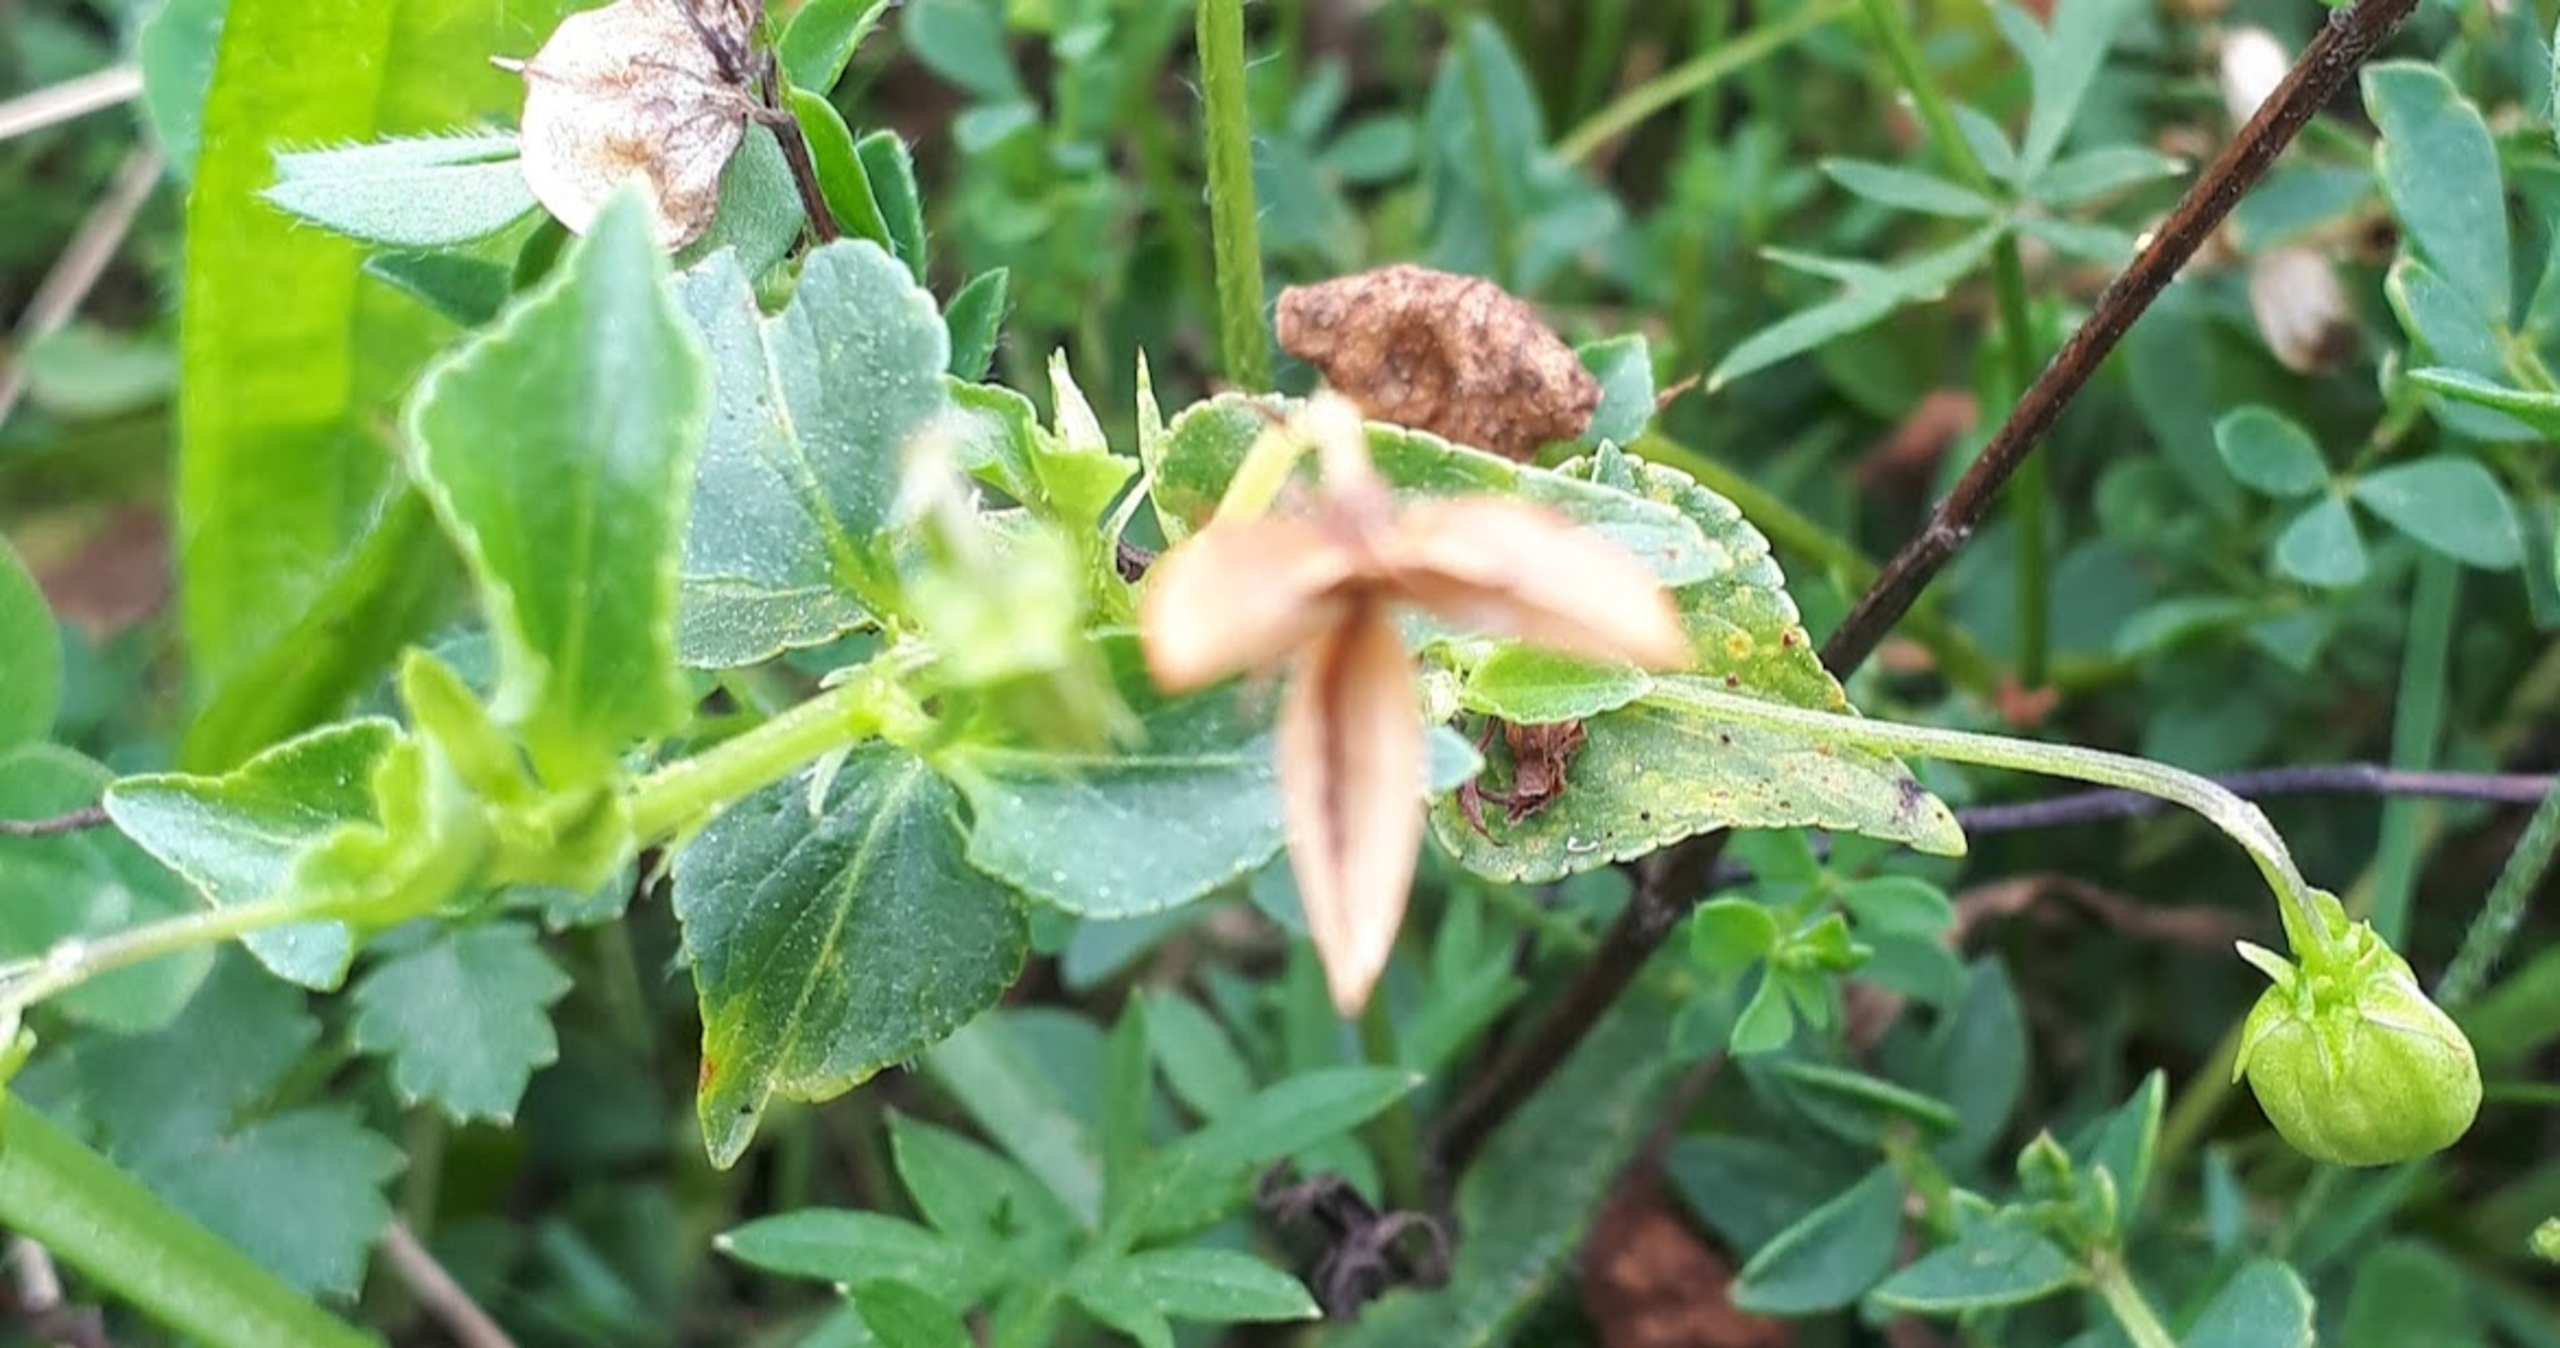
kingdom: Plantae
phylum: Tracheophyta
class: Magnoliopsida
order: Malpighiales
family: Violaceae
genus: Viola
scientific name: Viola canina
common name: Hunde-viol
